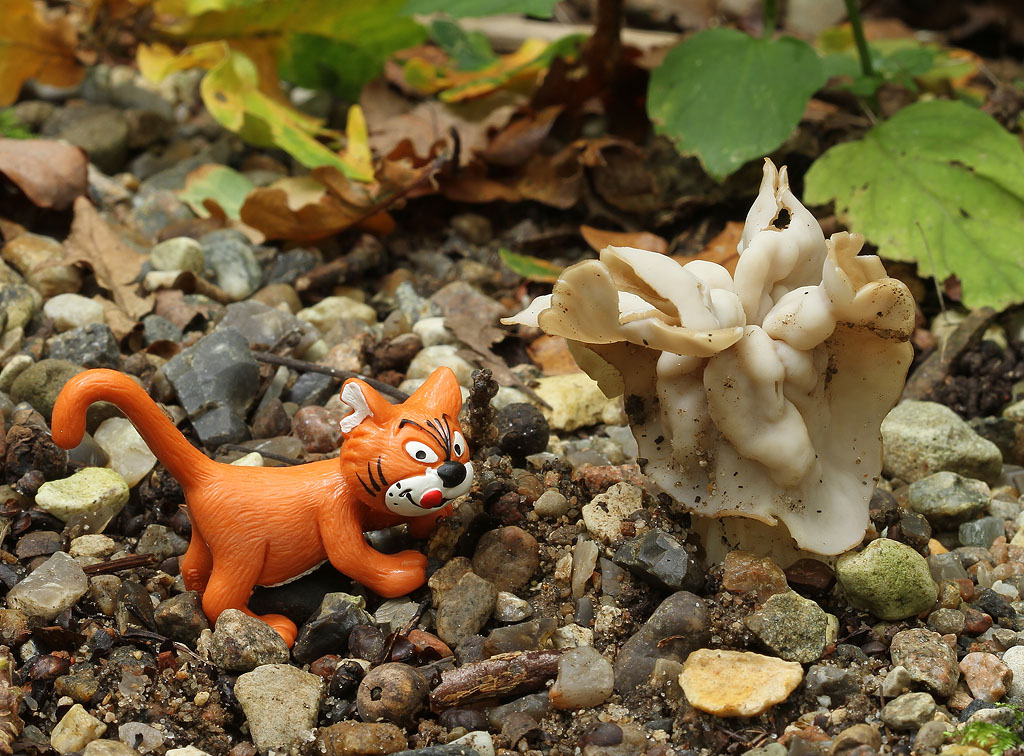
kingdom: Fungi
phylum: Ascomycota
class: Pezizomycetes
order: Pezizales
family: Helvellaceae
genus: Helvella
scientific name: Helvella crispa
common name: kruset foldhat
